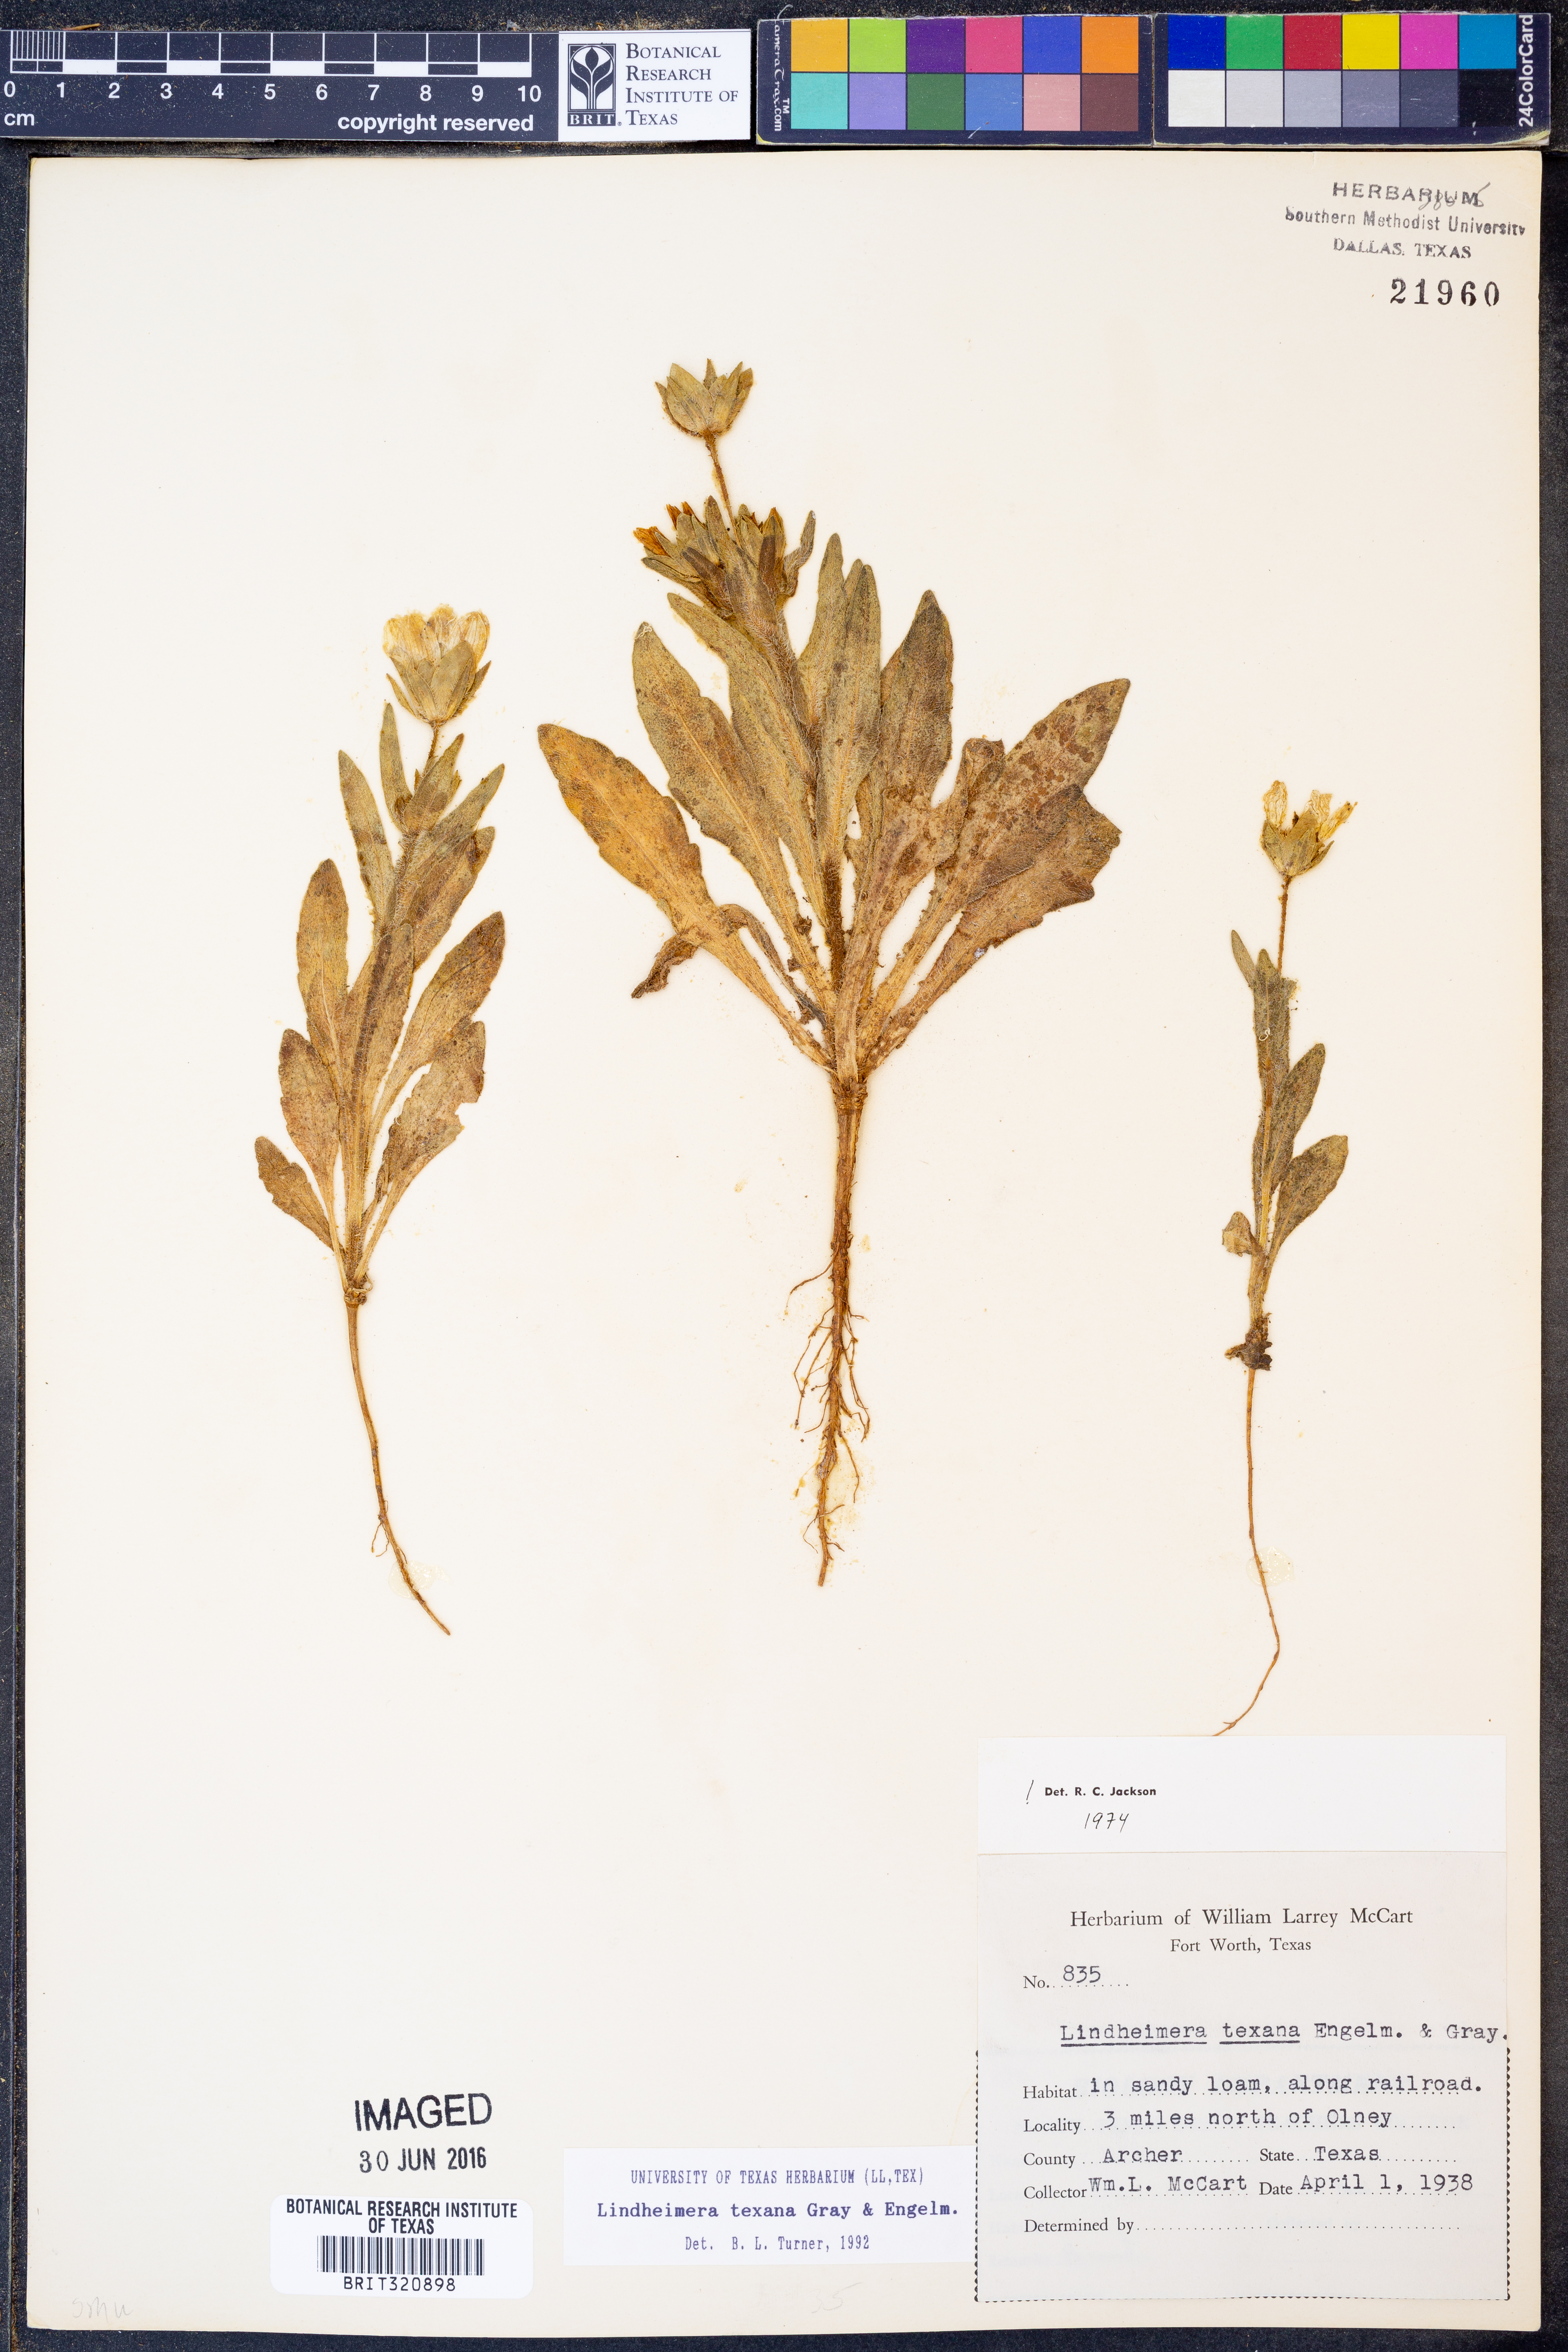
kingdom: Plantae
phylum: Tracheophyta
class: Magnoliopsida
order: Asterales
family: Asteraceae
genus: Lindheimera
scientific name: Lindheimera texana
